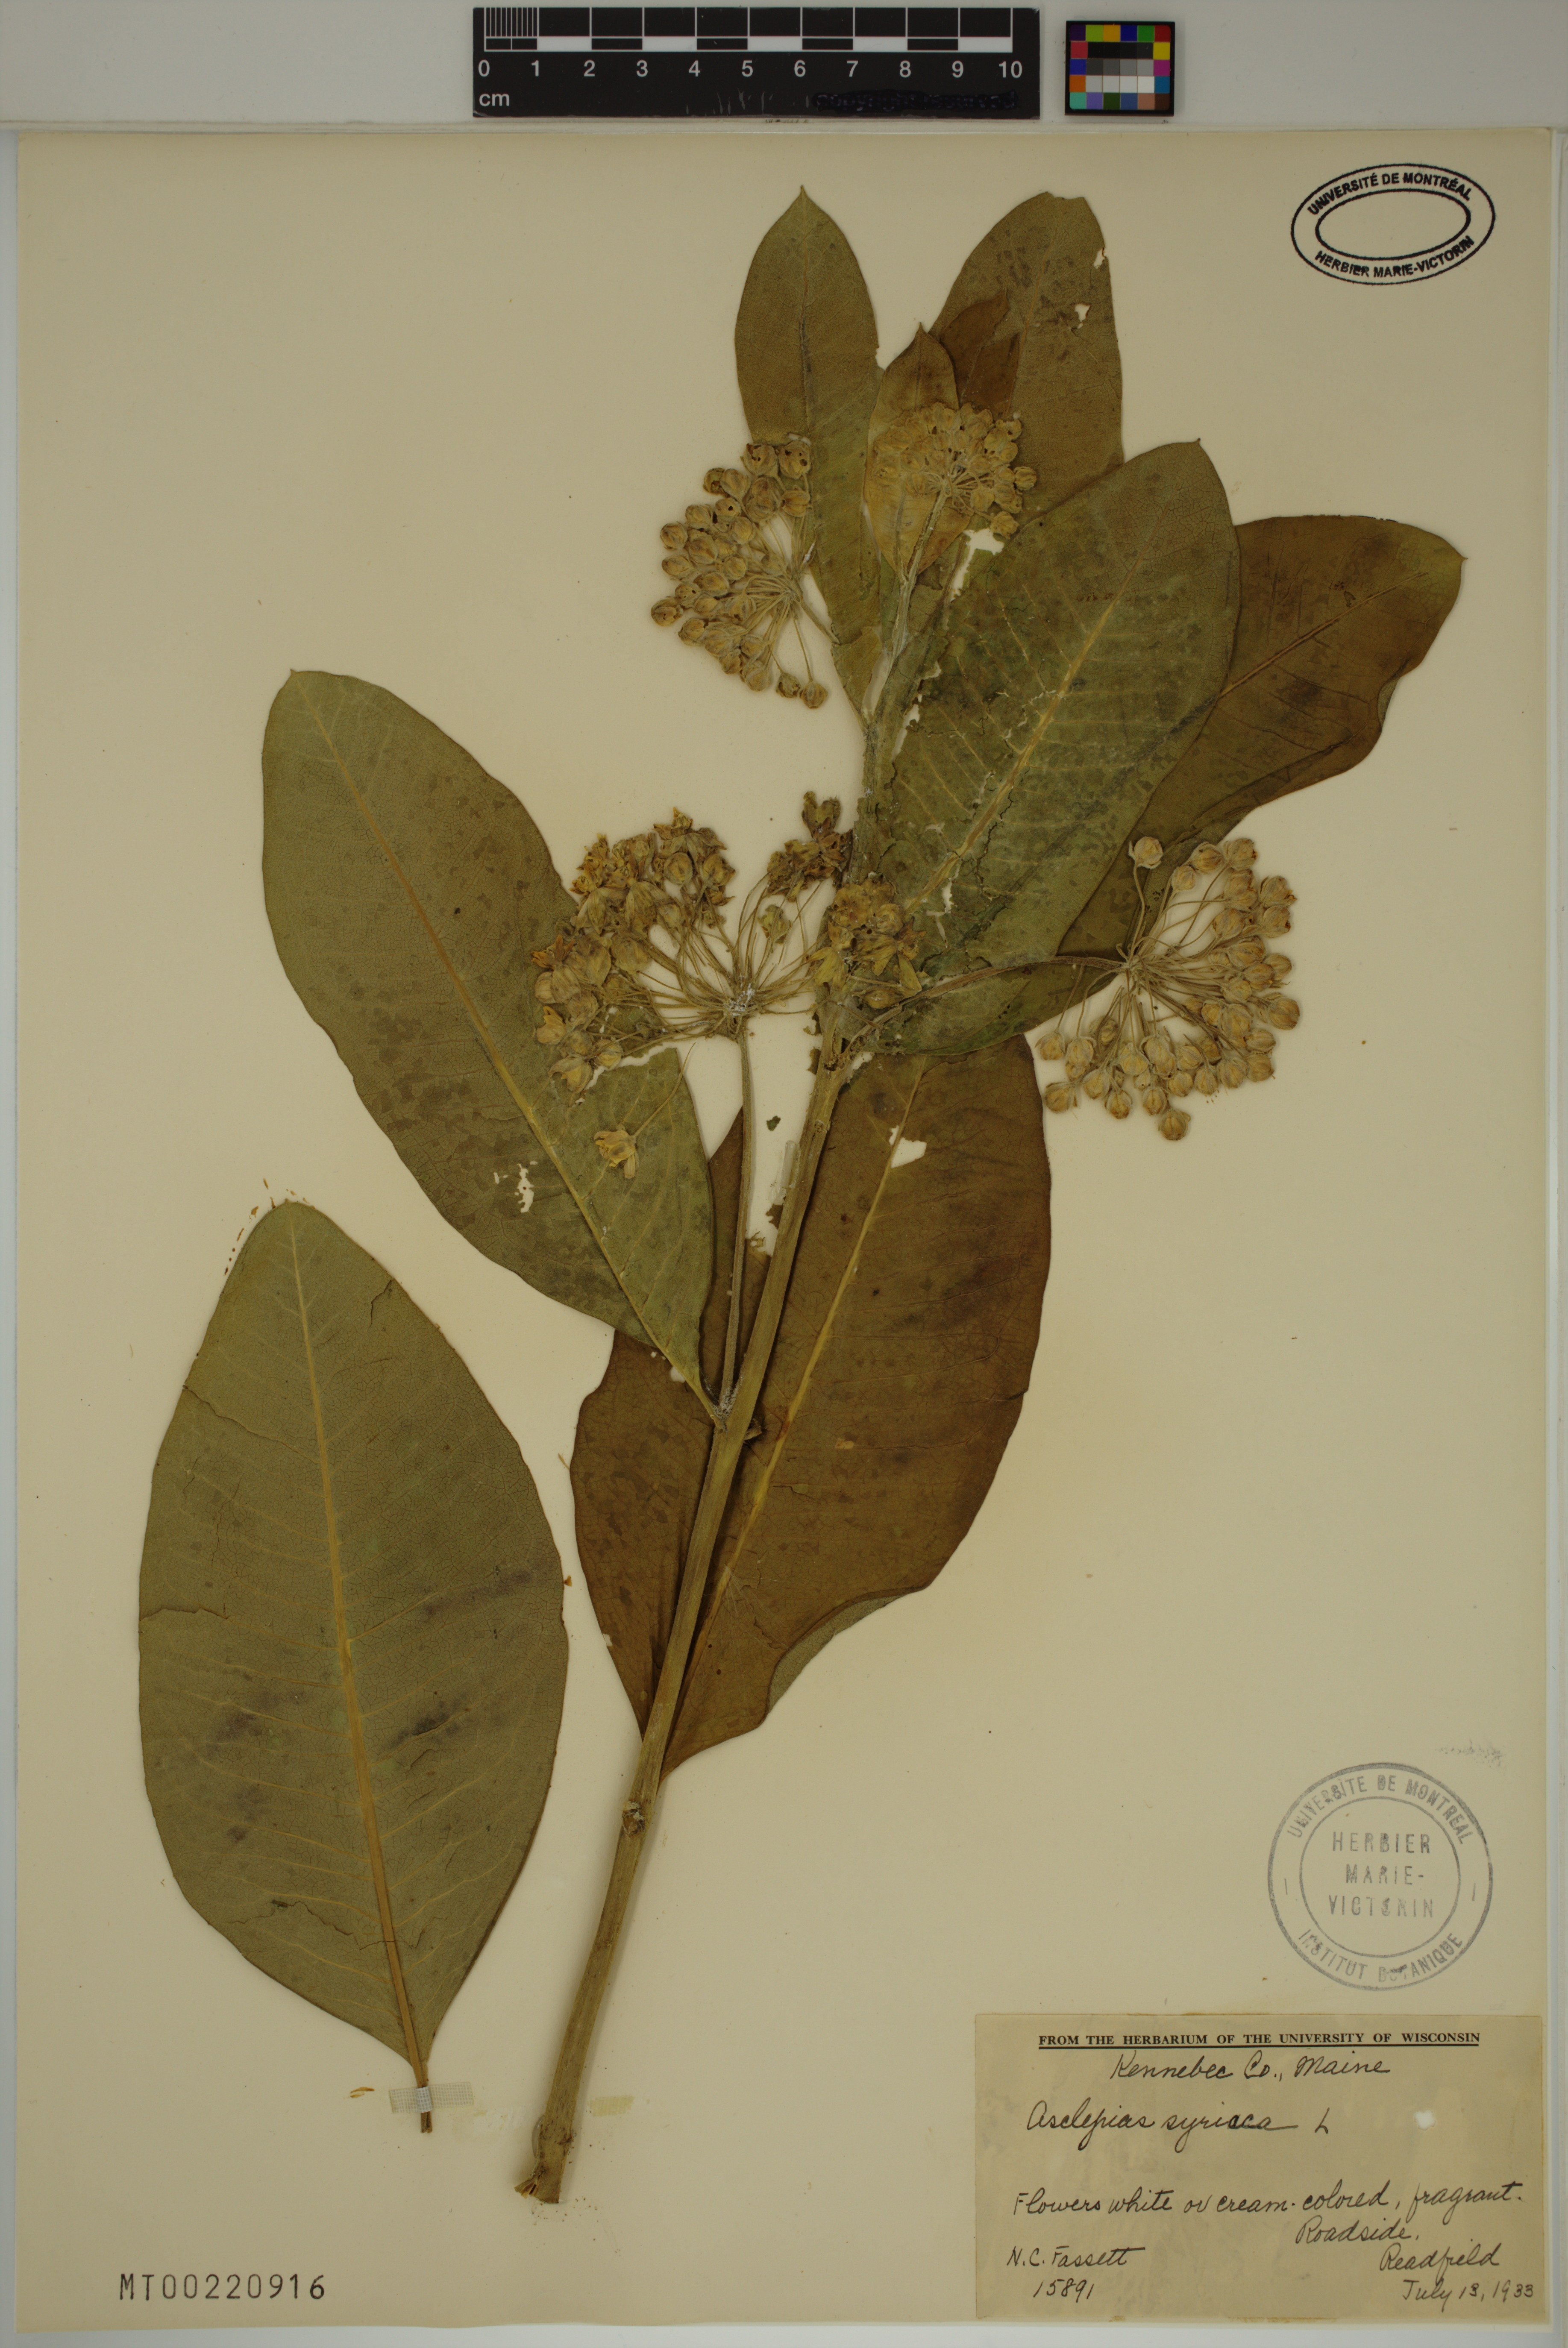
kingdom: Plantae
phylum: Tracheophyta
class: Magnoliopsida
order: Gentianales
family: Apocynaceae
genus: Asclepias
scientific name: Asclepias syriaca
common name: Common milkweed
